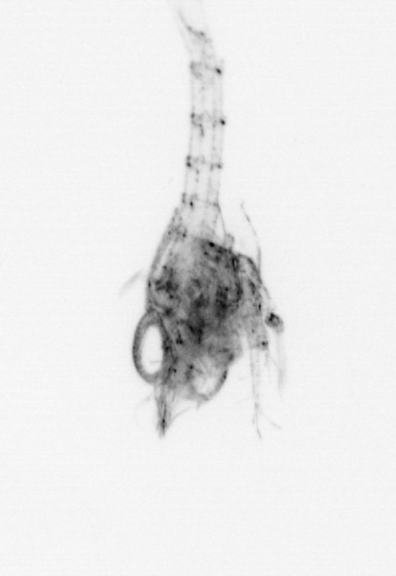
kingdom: Animalia
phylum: Arthropoda
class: Malacostraca
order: Decapoda
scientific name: Decapoda
